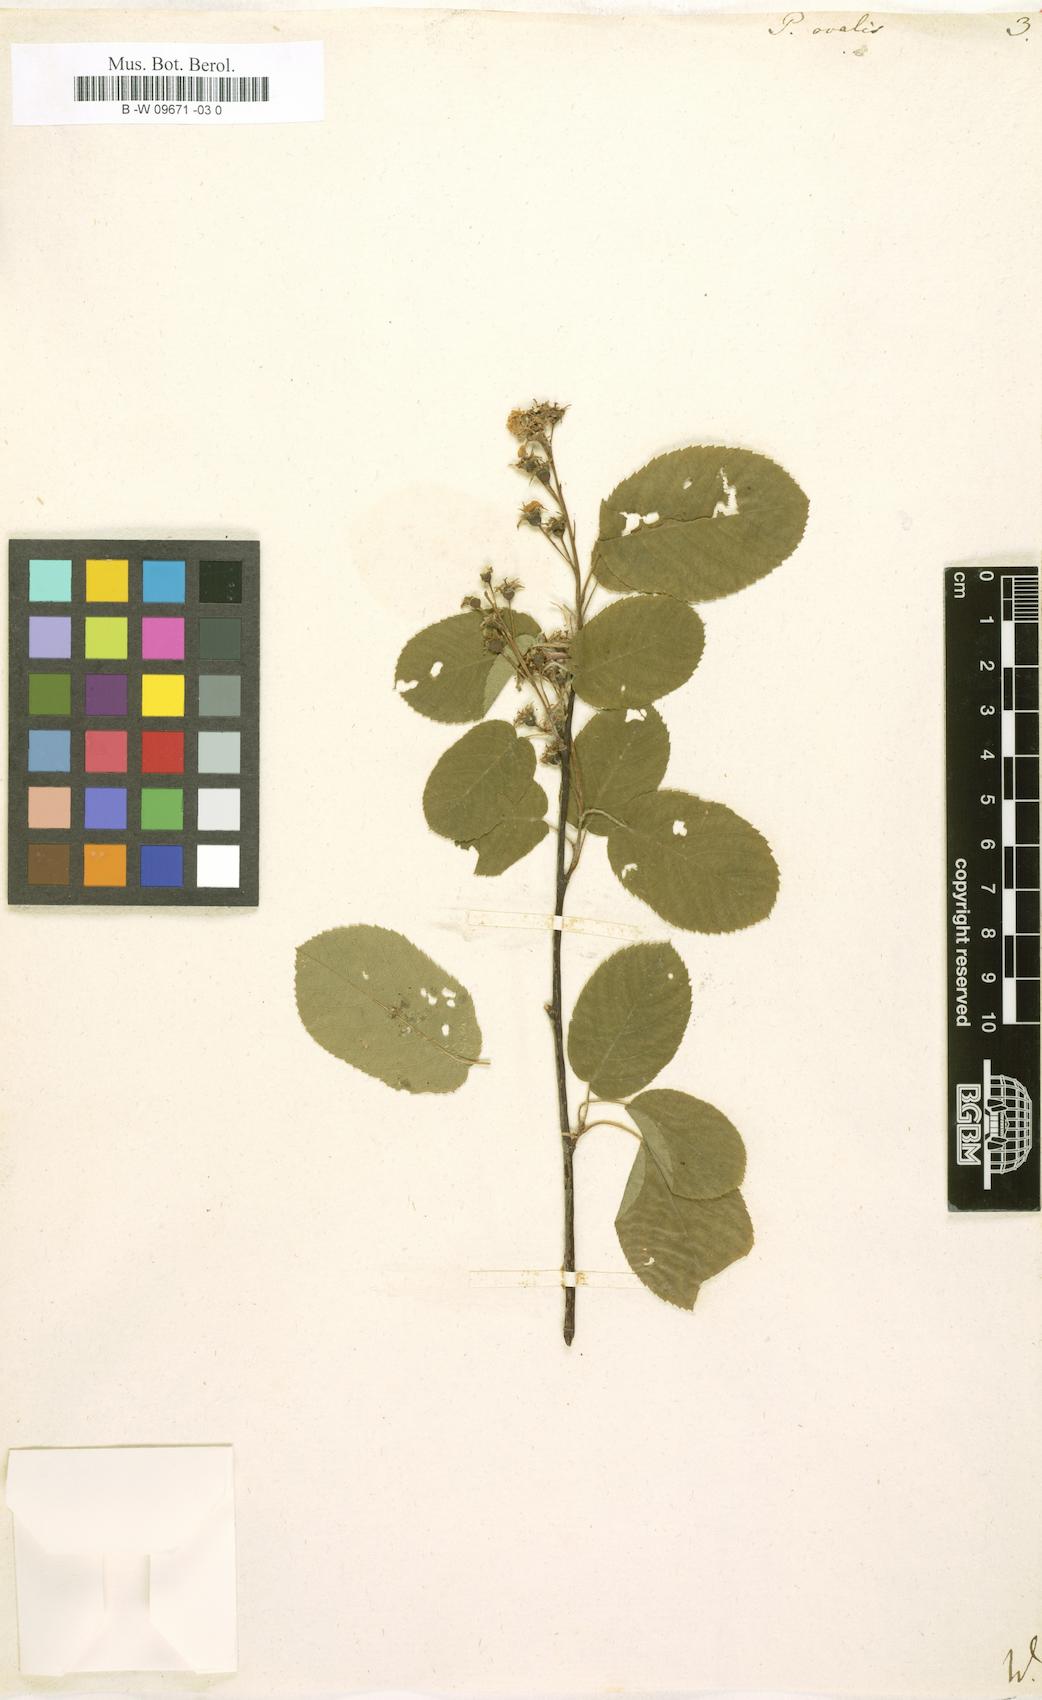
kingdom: Plantae
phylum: Tracheophyta
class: Magnoliopsida
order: Rosales
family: Rosaceae
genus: Amelanchier
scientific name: Amelanchier
